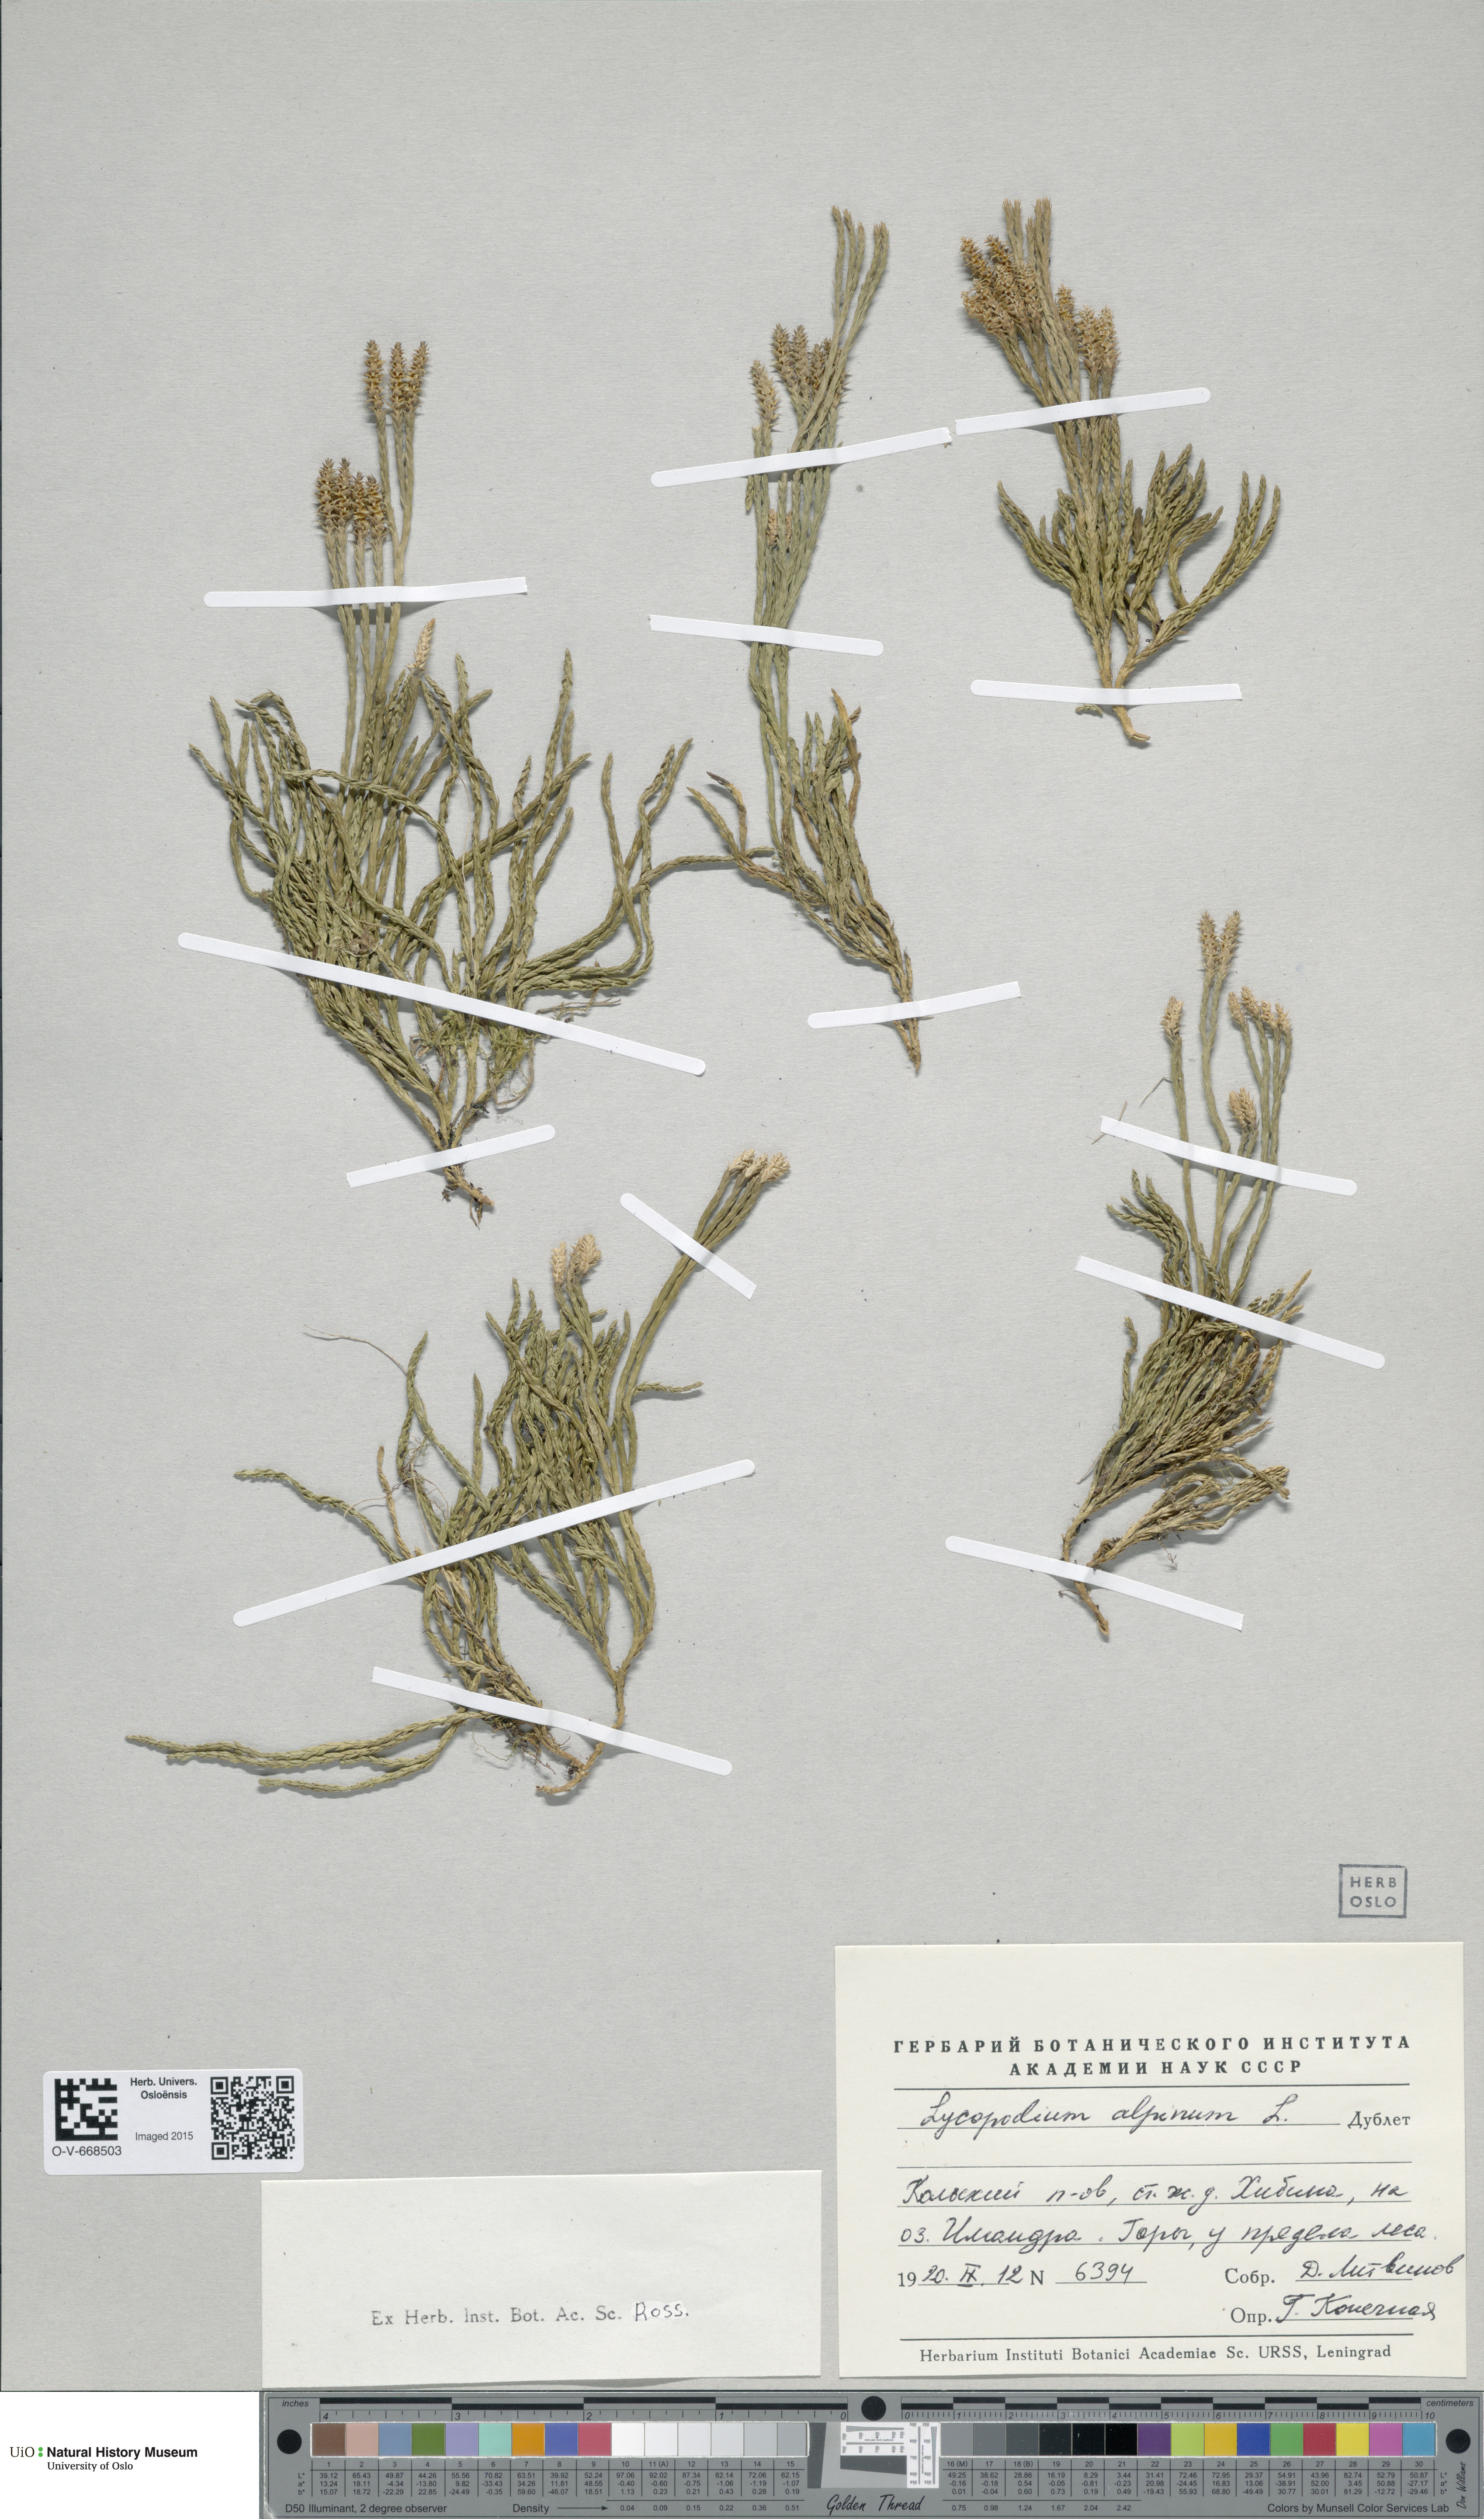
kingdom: Plantae
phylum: Tracheophyta
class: Lycopodiopsida
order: Lycopodiales
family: Lycopodiaceae
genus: Diphasiastrum
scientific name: Diphasiastrum alpinum
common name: Alpine clubmoss
